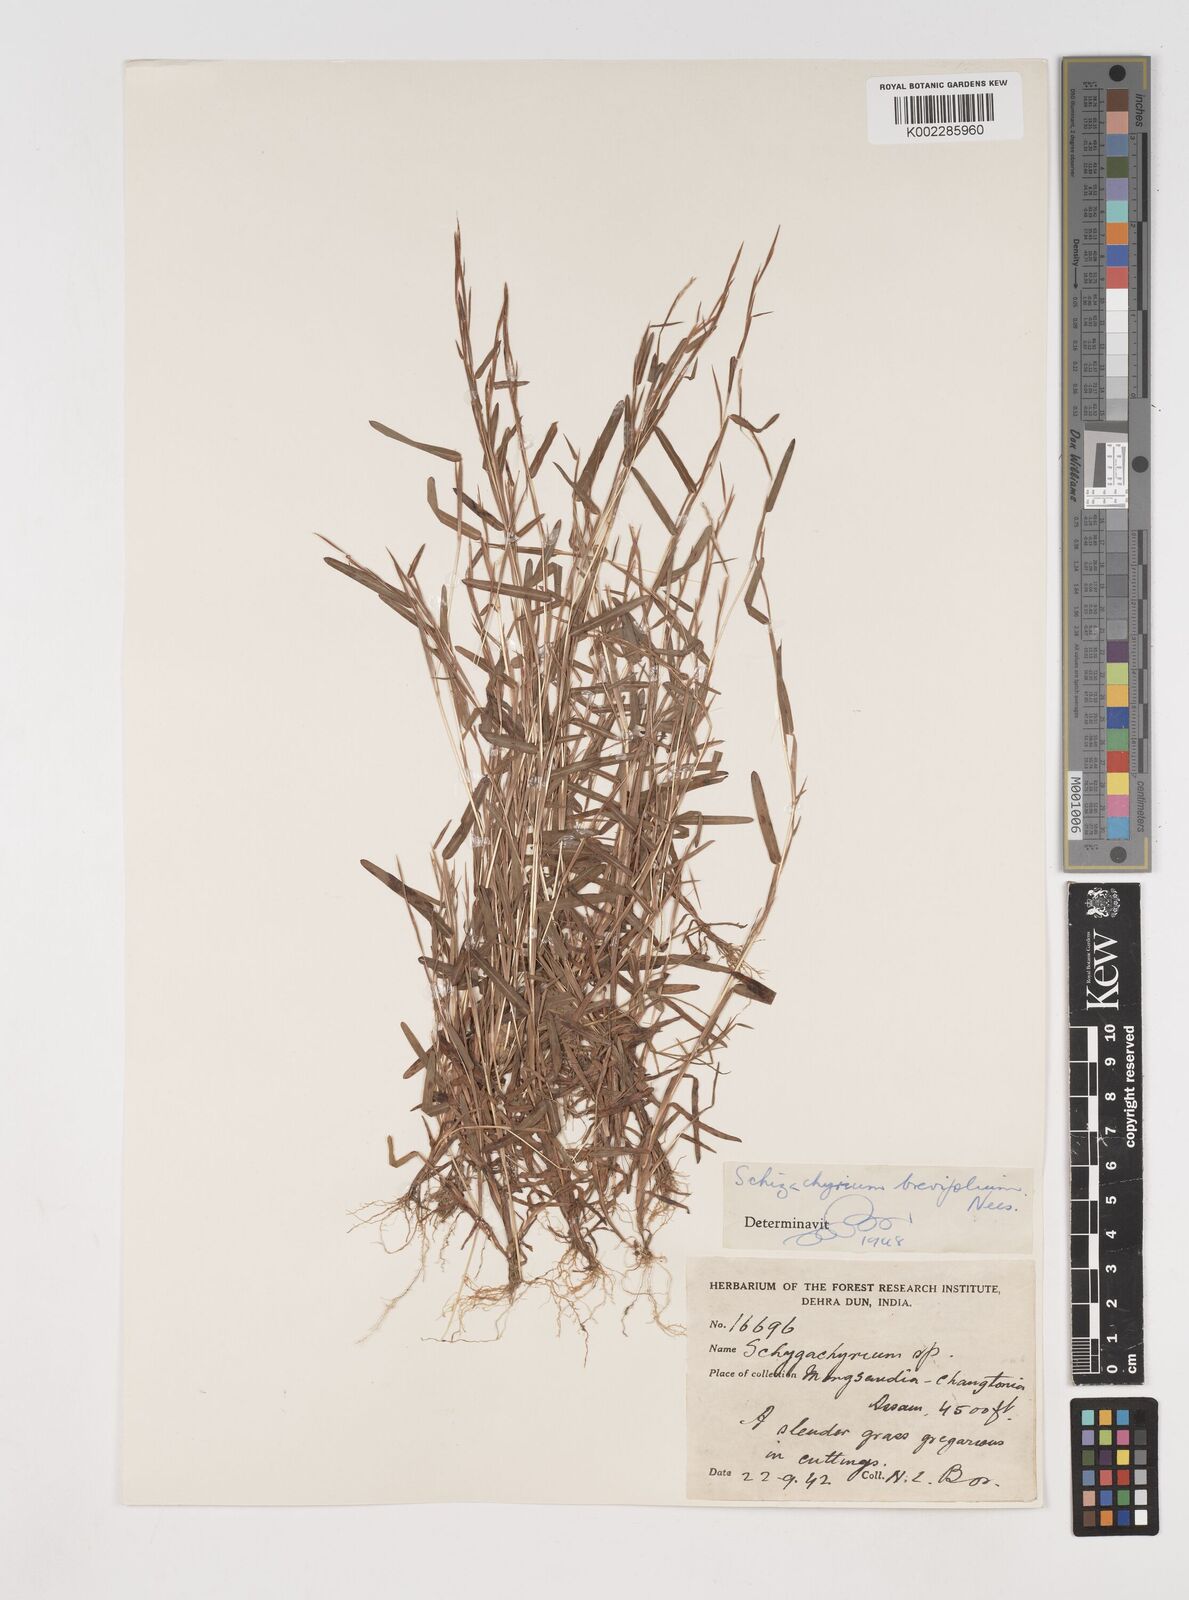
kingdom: Plantae
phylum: Tracheophyta
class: Liliopsida
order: Poales
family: Poaceae
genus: Schizachyrium
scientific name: Schizachyrium brevifolium
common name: Serillo dulce
